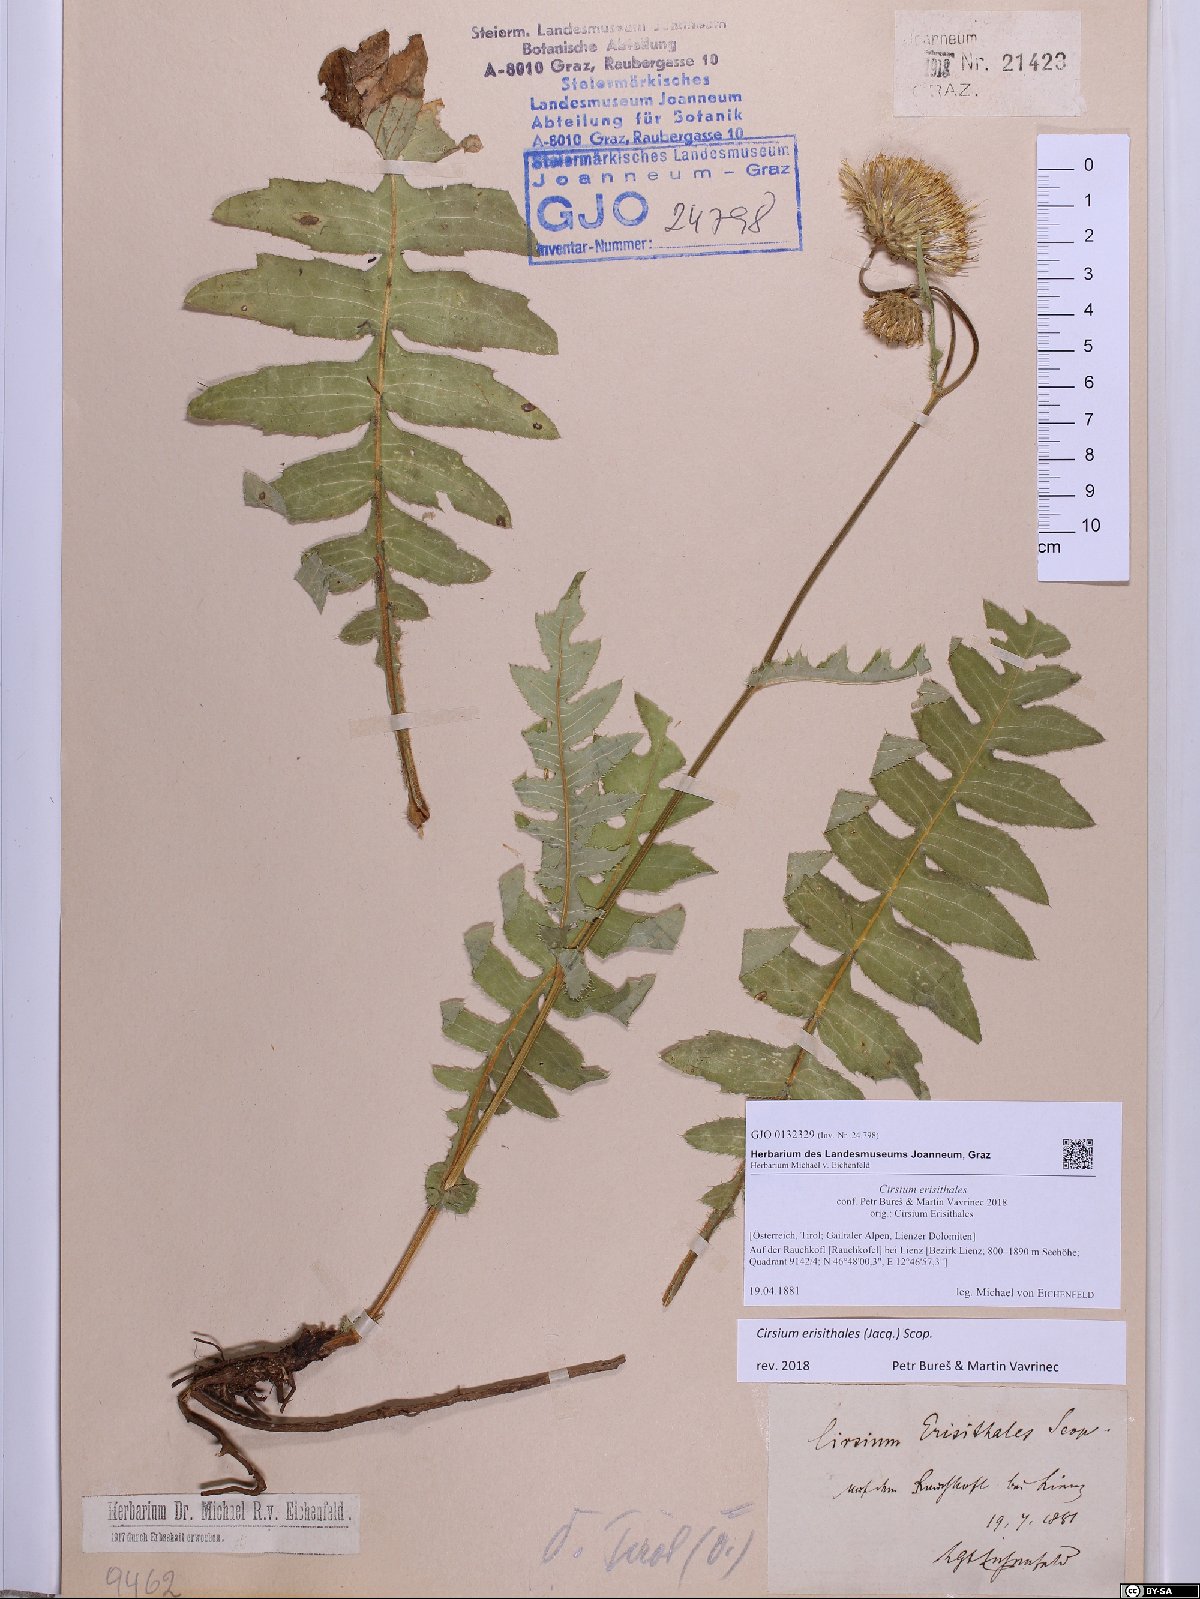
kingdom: Plantae
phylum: Tracheophyta
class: Magnoliopsida
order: Asterales
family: Asteraceae
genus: Cirsium
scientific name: Cirsium erisithales
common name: Yellow thistle
